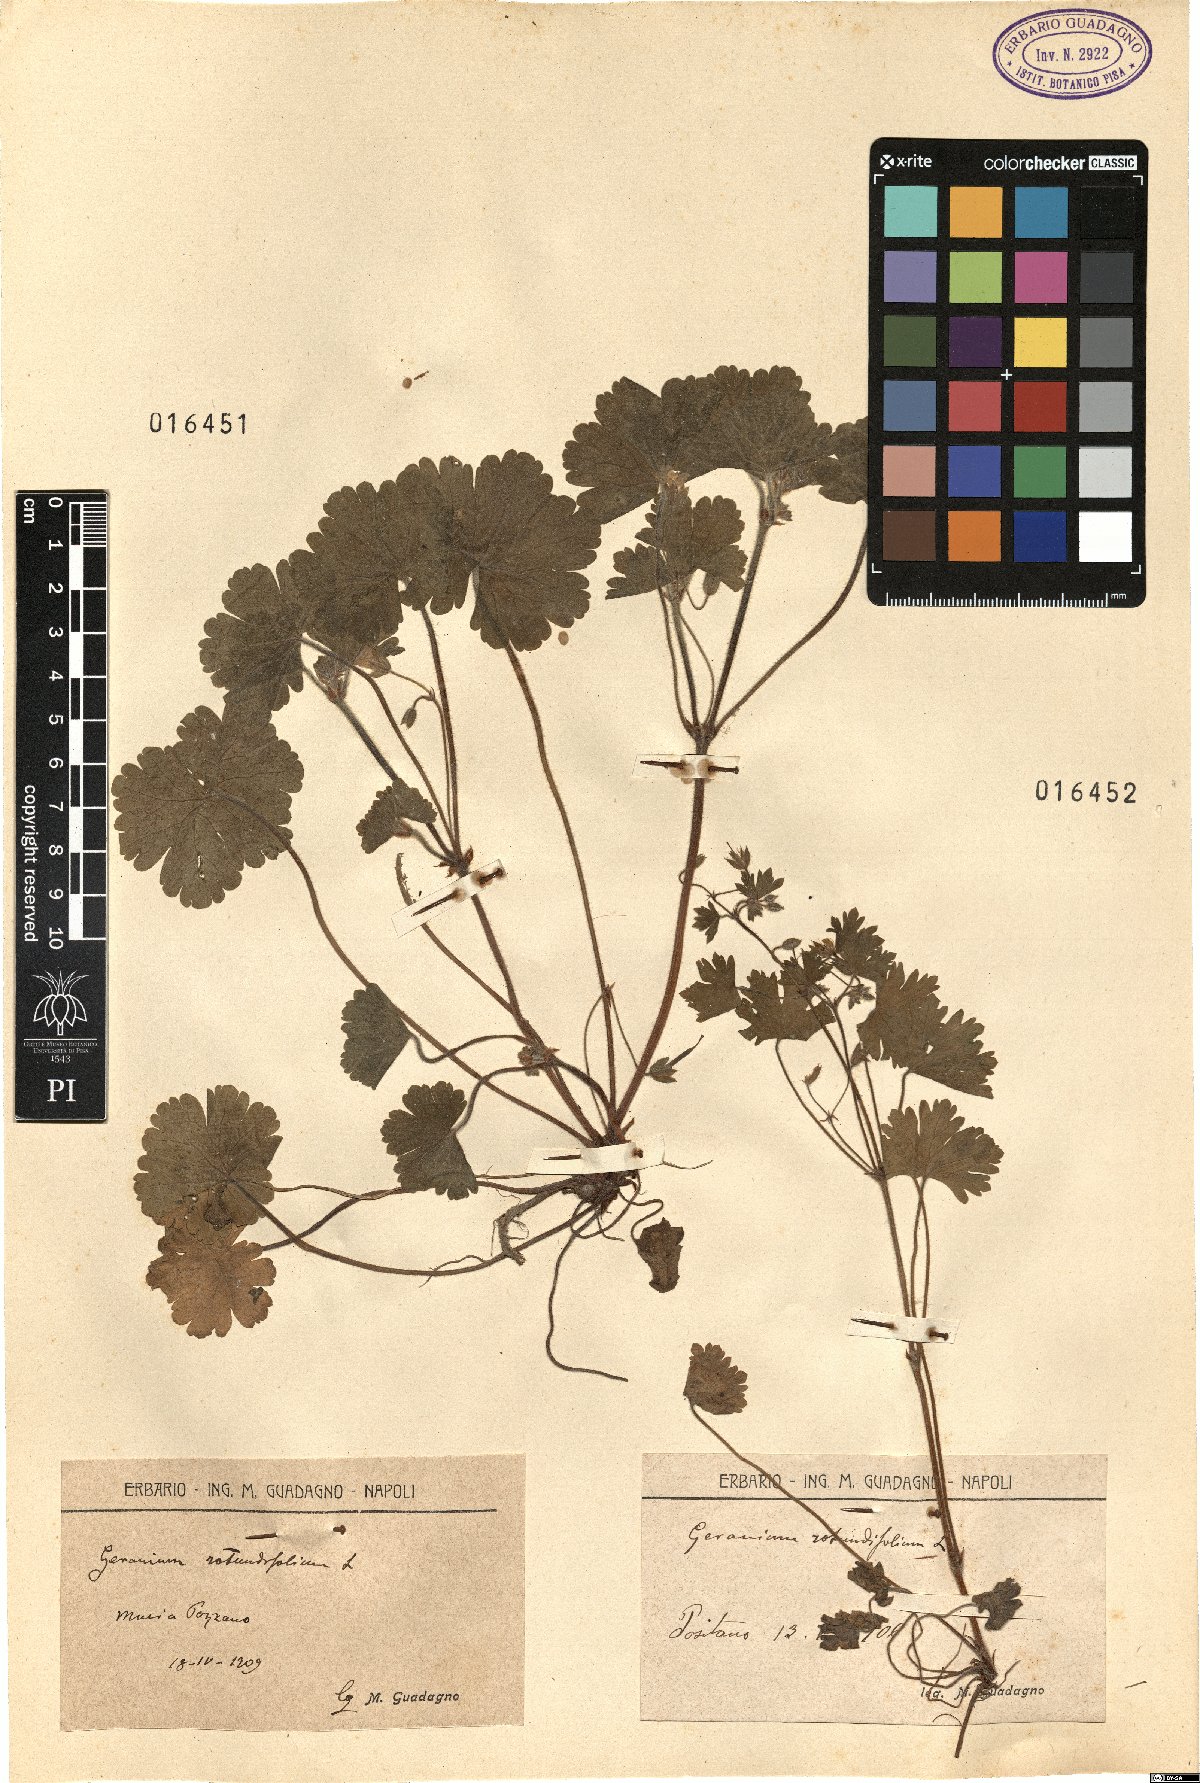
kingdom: Plantae
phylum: Tracheophyta
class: Magnoliopsida
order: Geraniales
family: Geraniaceae
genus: Geranium
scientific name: Geranium rotundifolium
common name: Round-leaved crane's-bill
